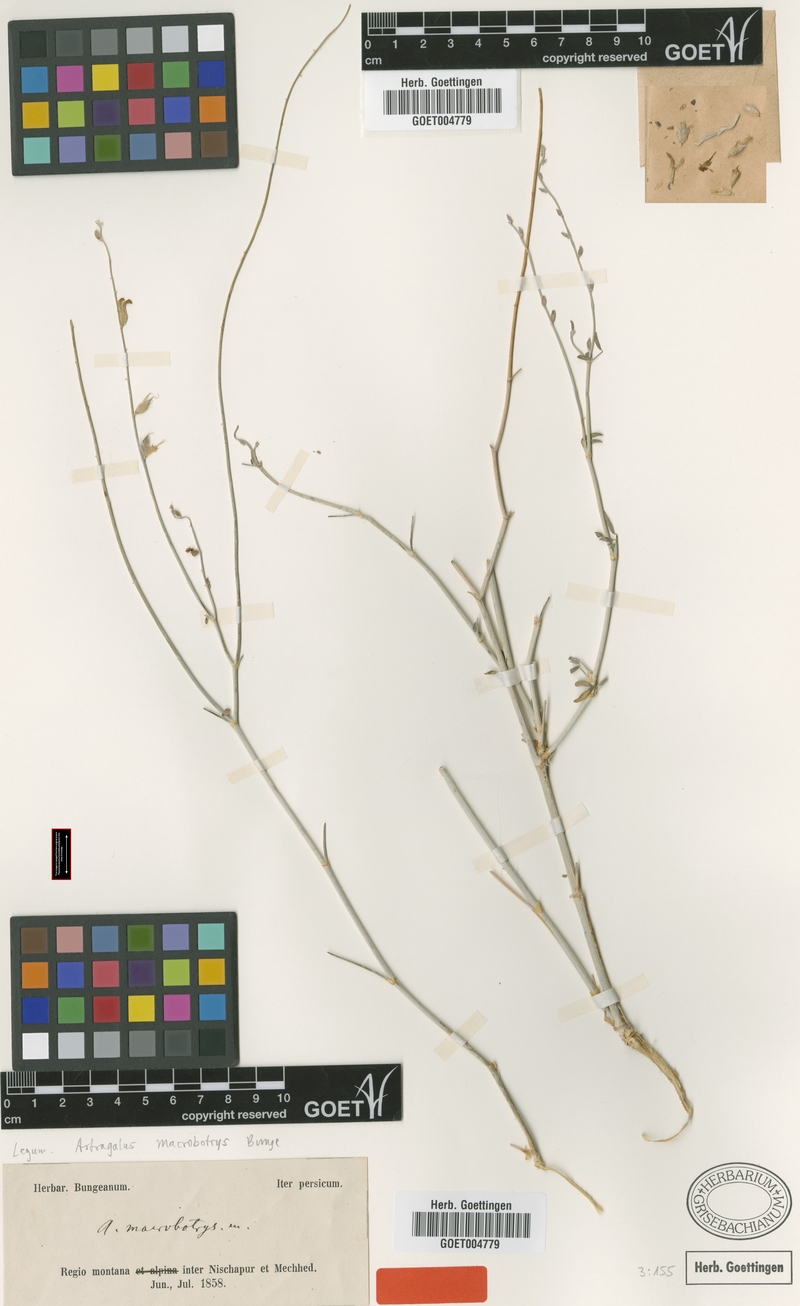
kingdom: Plantae
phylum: Tracheophyta
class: Magnoliopsida
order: Fabales
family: Fabaceae
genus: Astragalus
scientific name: Astragalus macrobotrys
